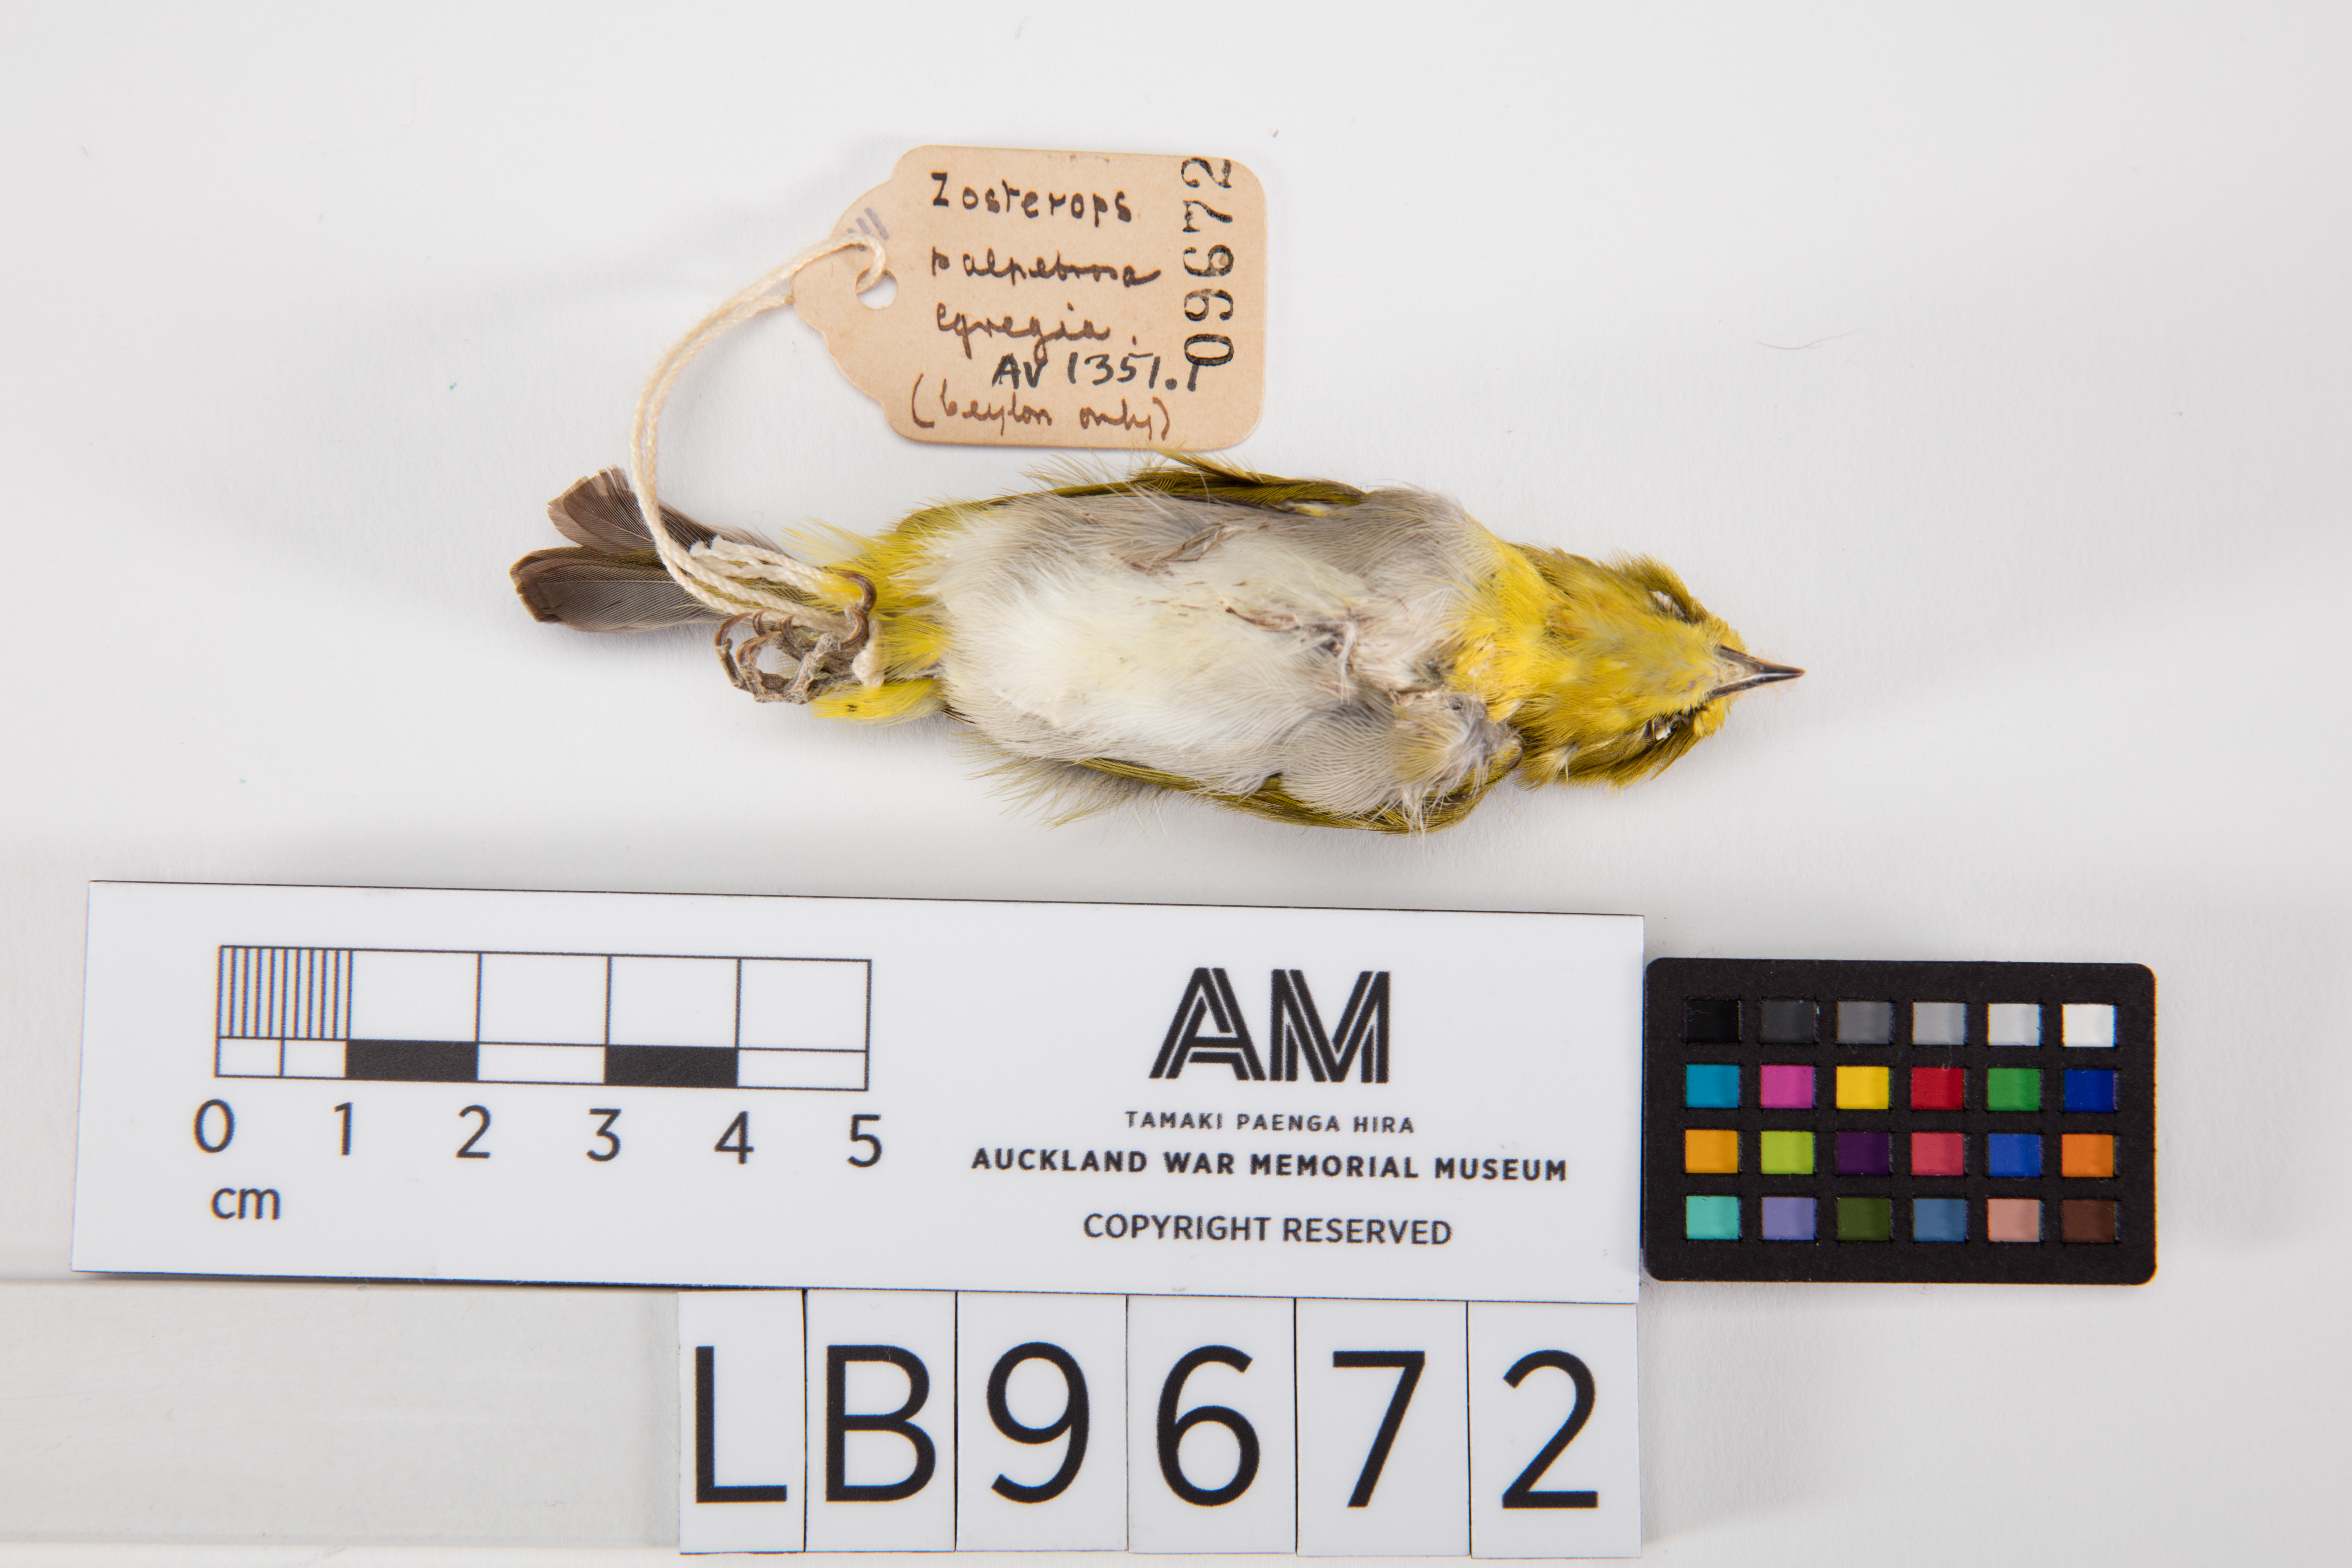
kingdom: Animalia
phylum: Chordata
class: Aves
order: Passeriformes
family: Zosteropidae
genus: Zosterops
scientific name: Zosterops palpebrosus
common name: Oriental white-eye
